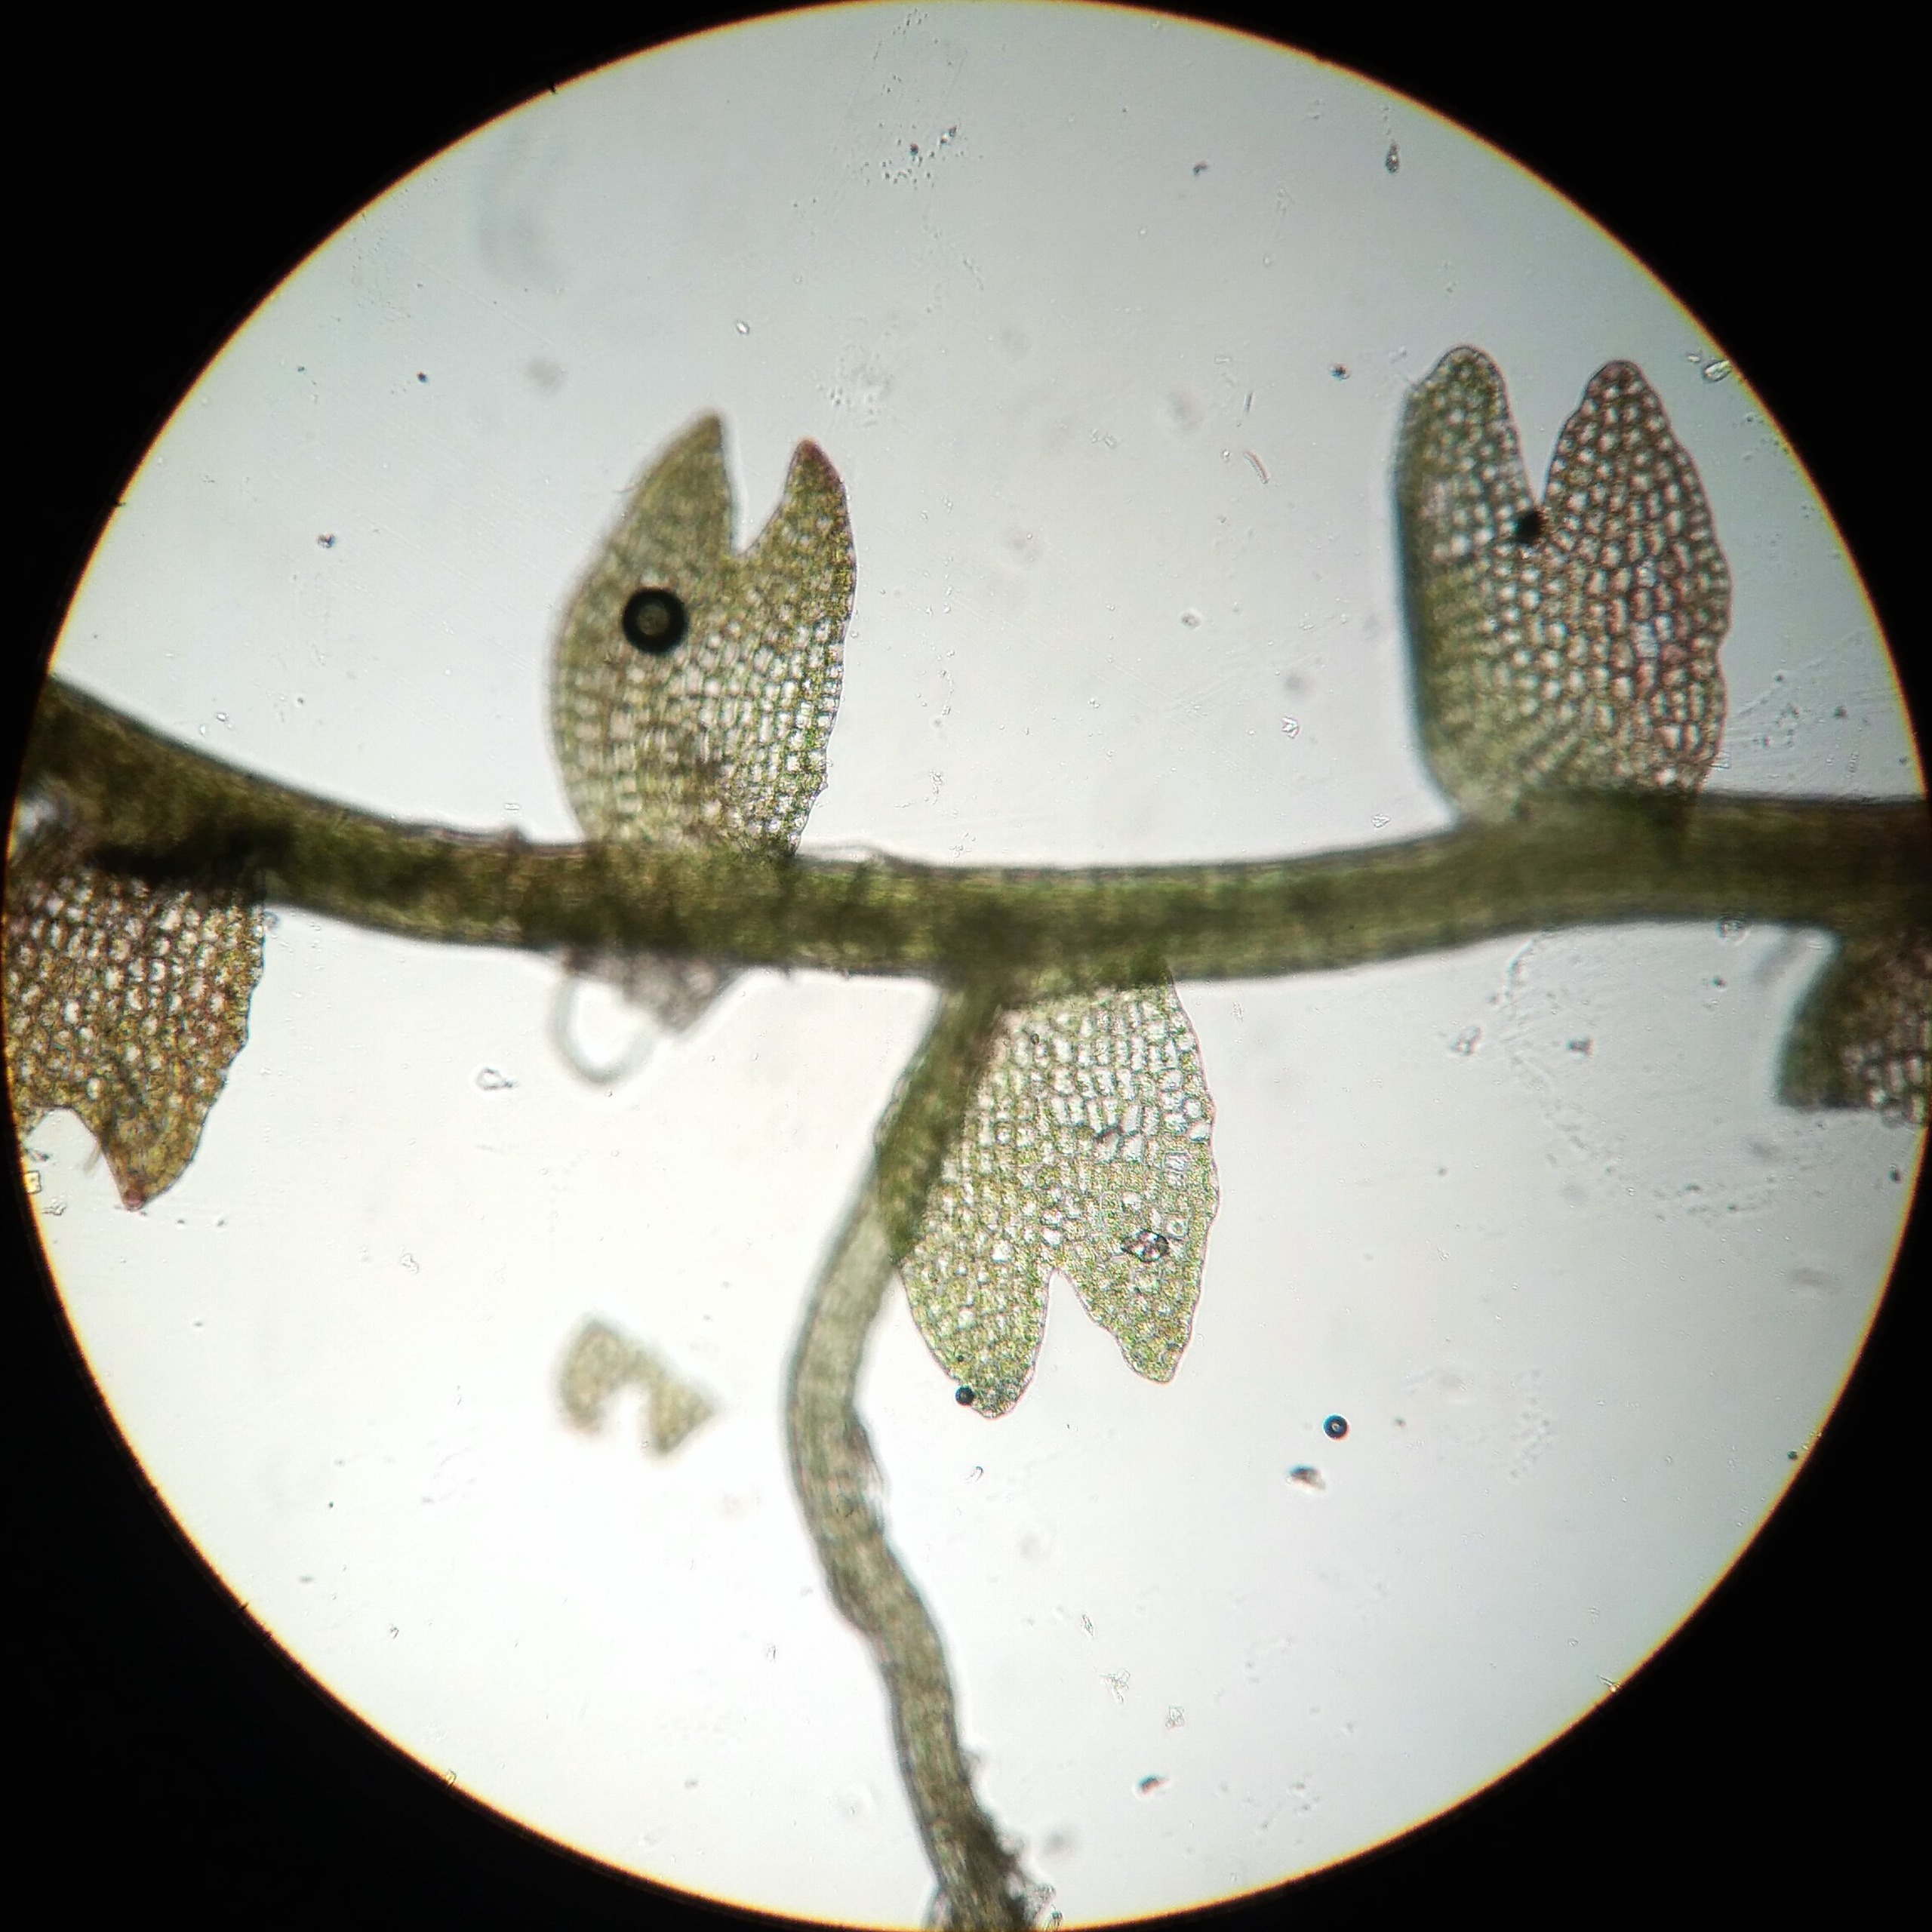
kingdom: Plantae
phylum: Marchantiophyta
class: Jungermanniopsida
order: Jungermanniales
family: Cephaloziaceae
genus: Odontoschisma
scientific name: Odontoschisma fluitans
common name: Tørve-vævmos
